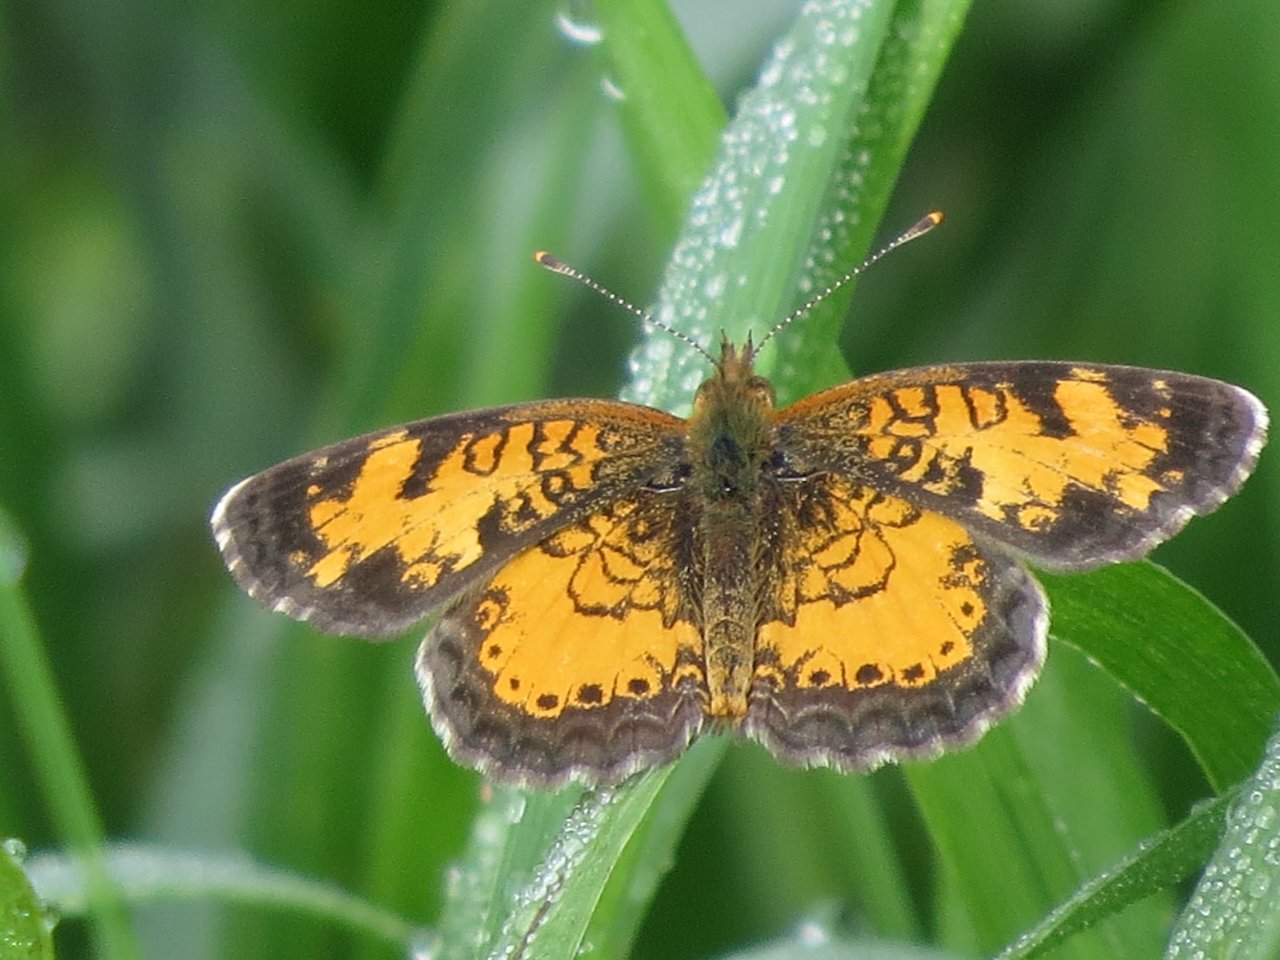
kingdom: Animalia
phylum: Arthropoda
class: Insecta
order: Lepidoptera
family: Nymphalidae
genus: Phyciodes
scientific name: Phyciodes tharos
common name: Northern Crescent
